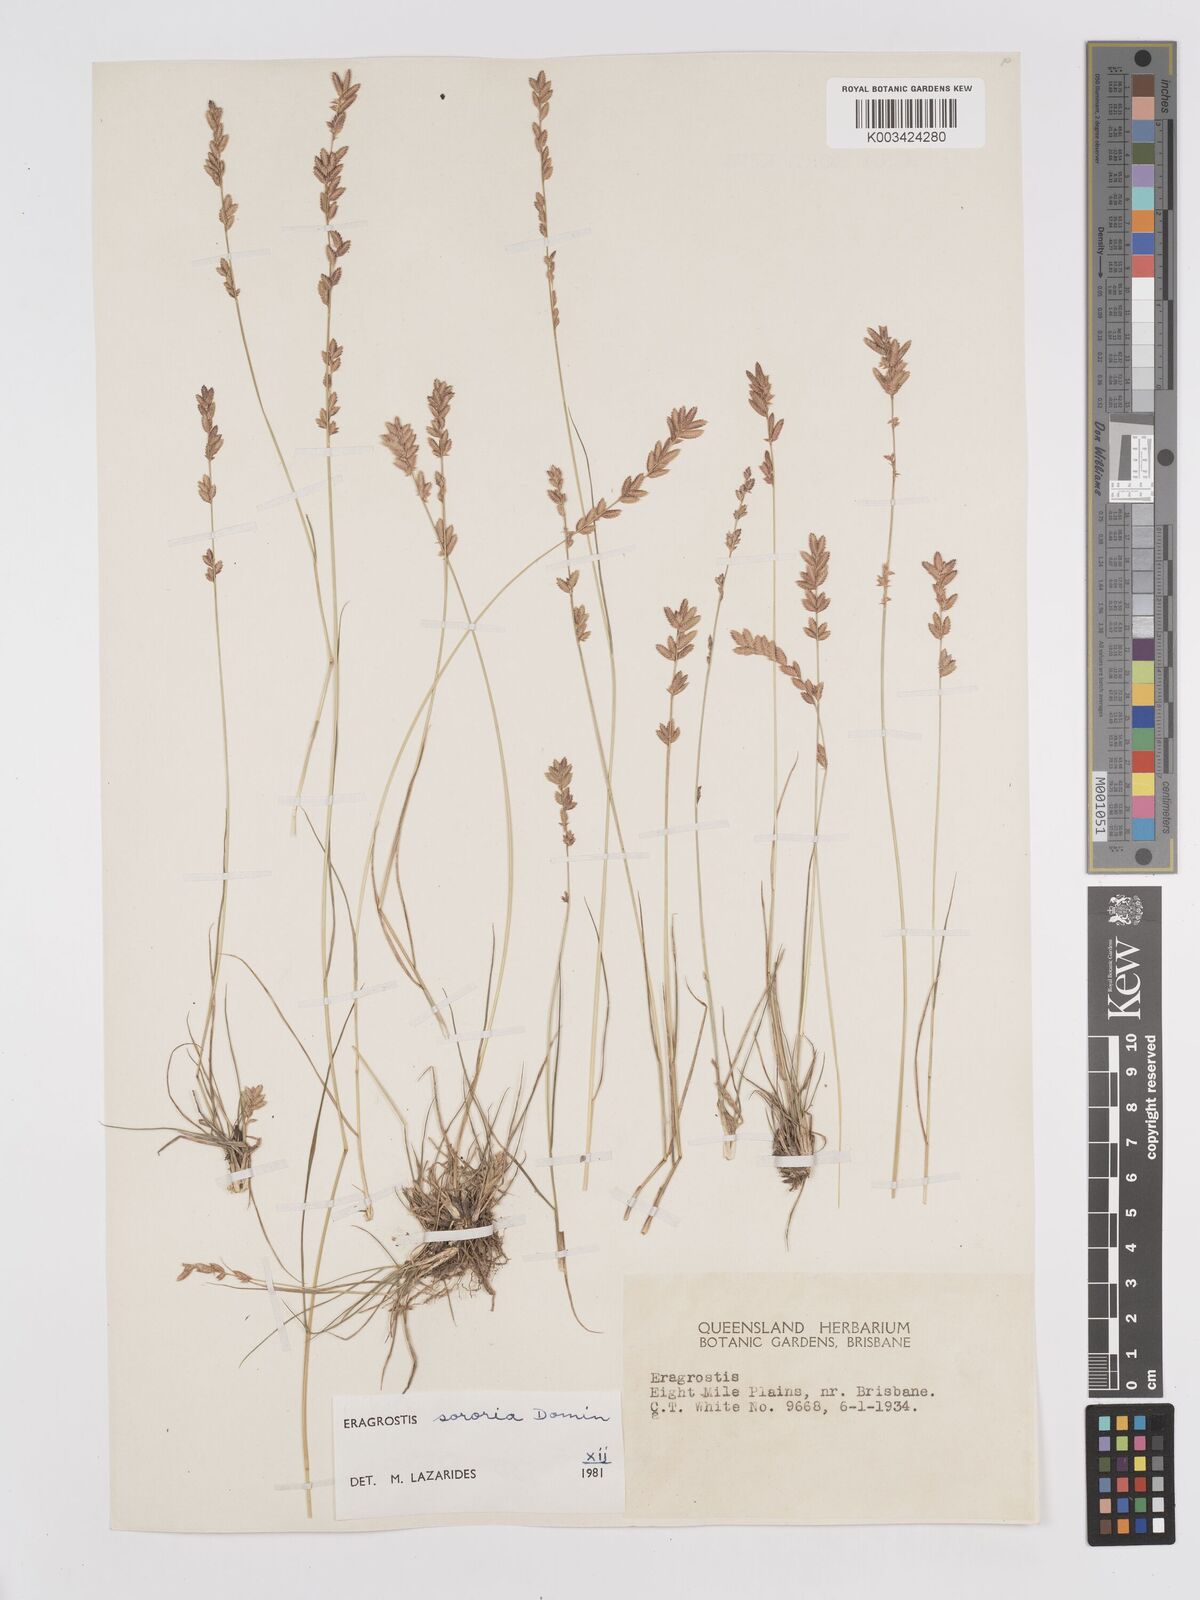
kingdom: Plantae
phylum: Tracheophyta
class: Liliopsida
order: Poales
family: Poaceae
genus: Eragrostis
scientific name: Eragrostis sororia
